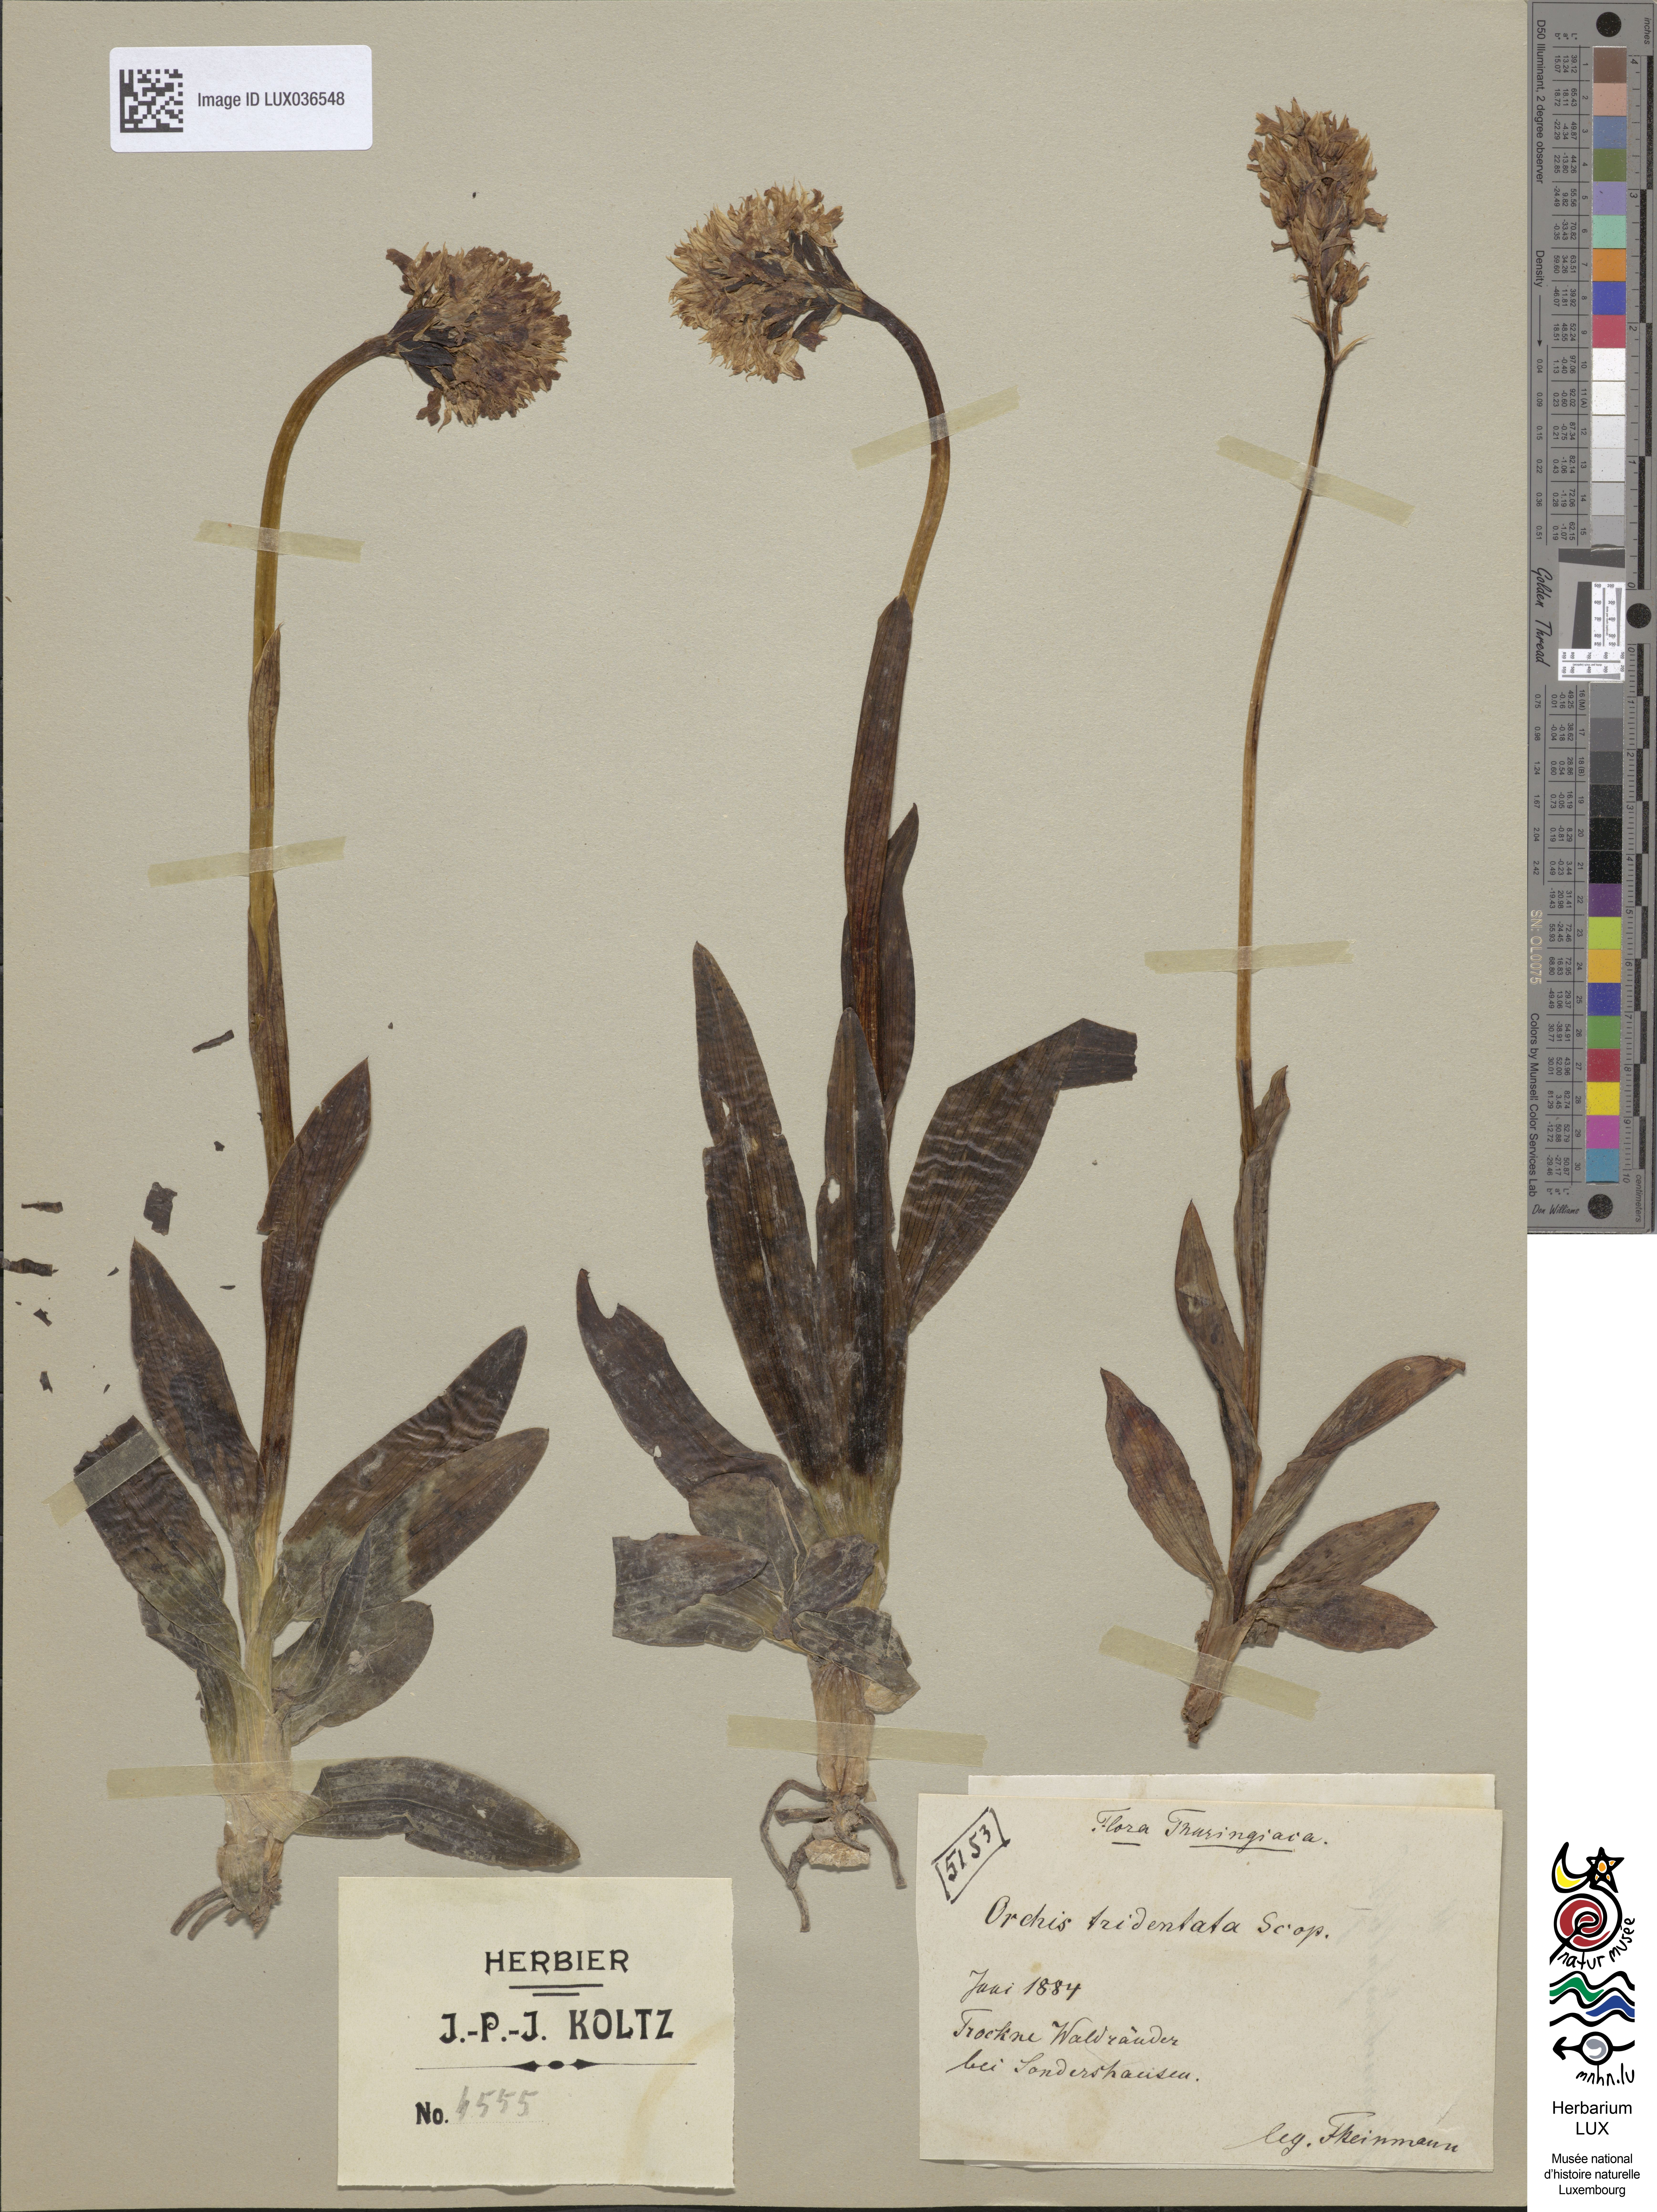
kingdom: Plantae
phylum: Tracheophyta
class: Liliopsida
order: Asparagales
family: Orchidaceae
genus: Neotinea
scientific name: Neotinea tridentata
